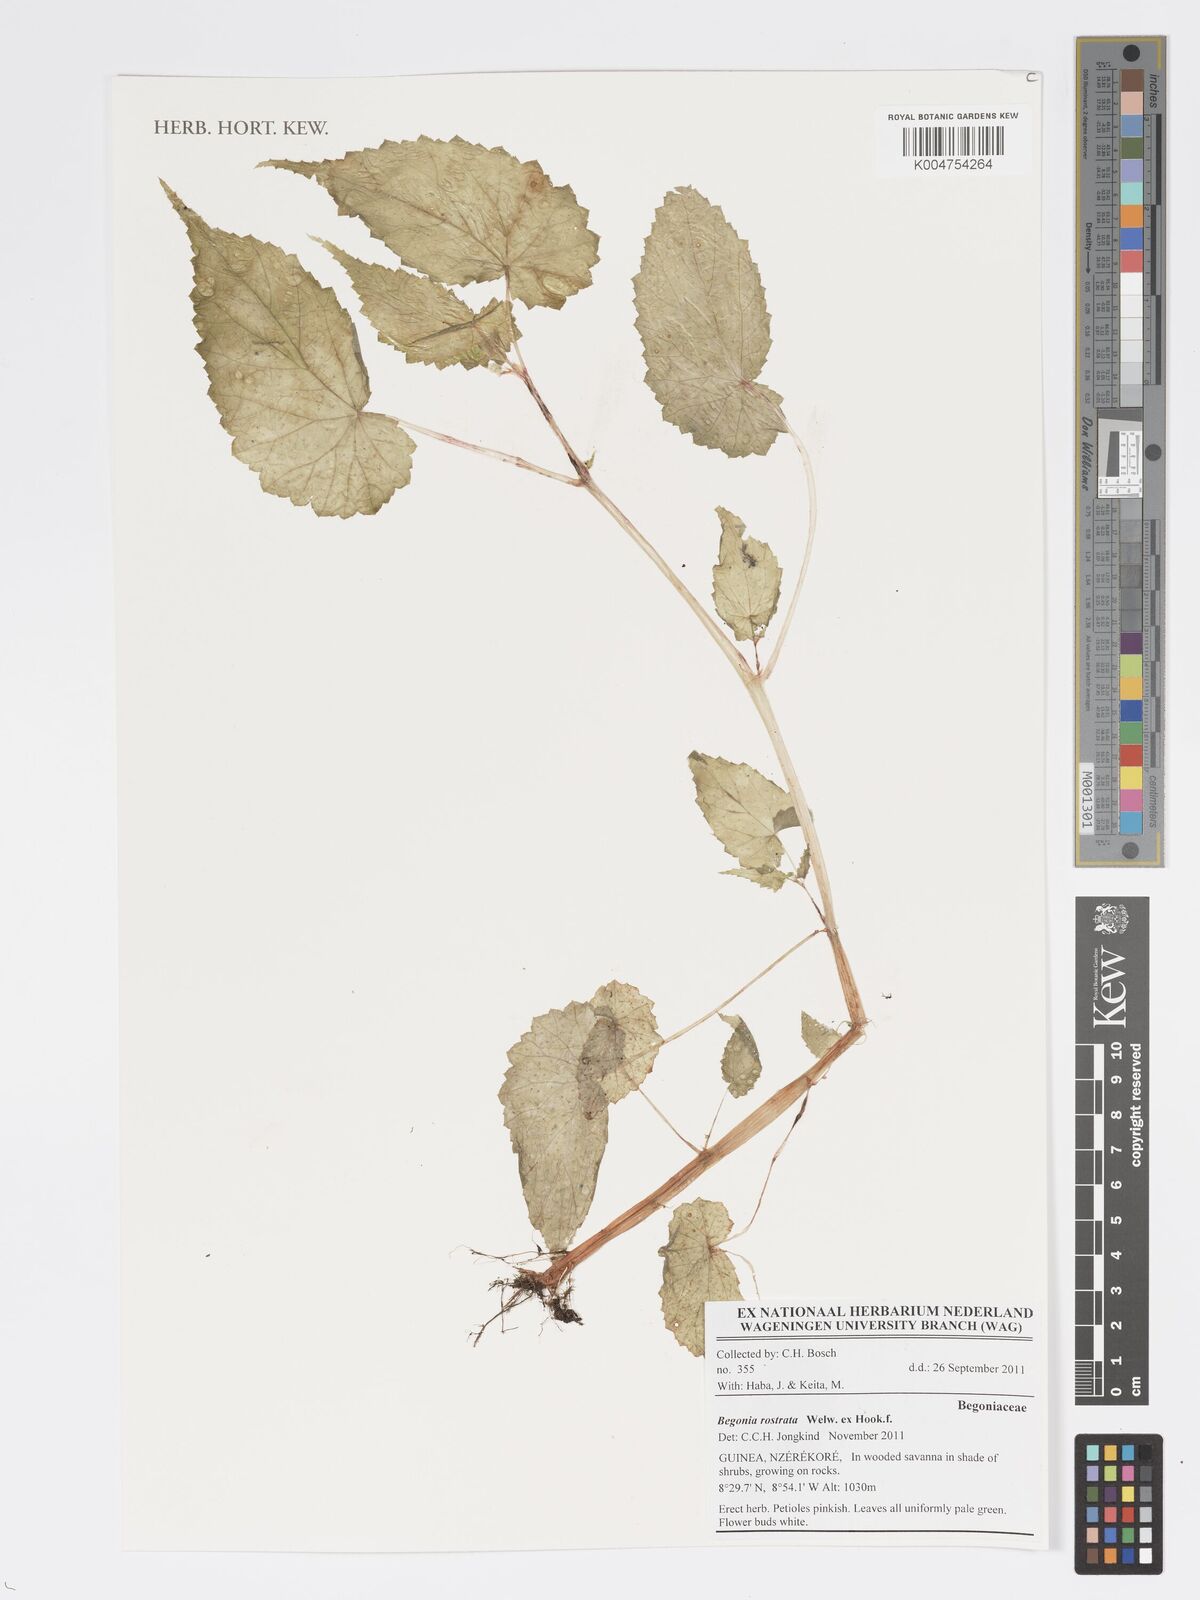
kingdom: Plantae
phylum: Tracheophyta
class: Magnoliopsida
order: Cucurbitales
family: Begoniaceae
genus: Begonia
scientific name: Begonia rostrata
